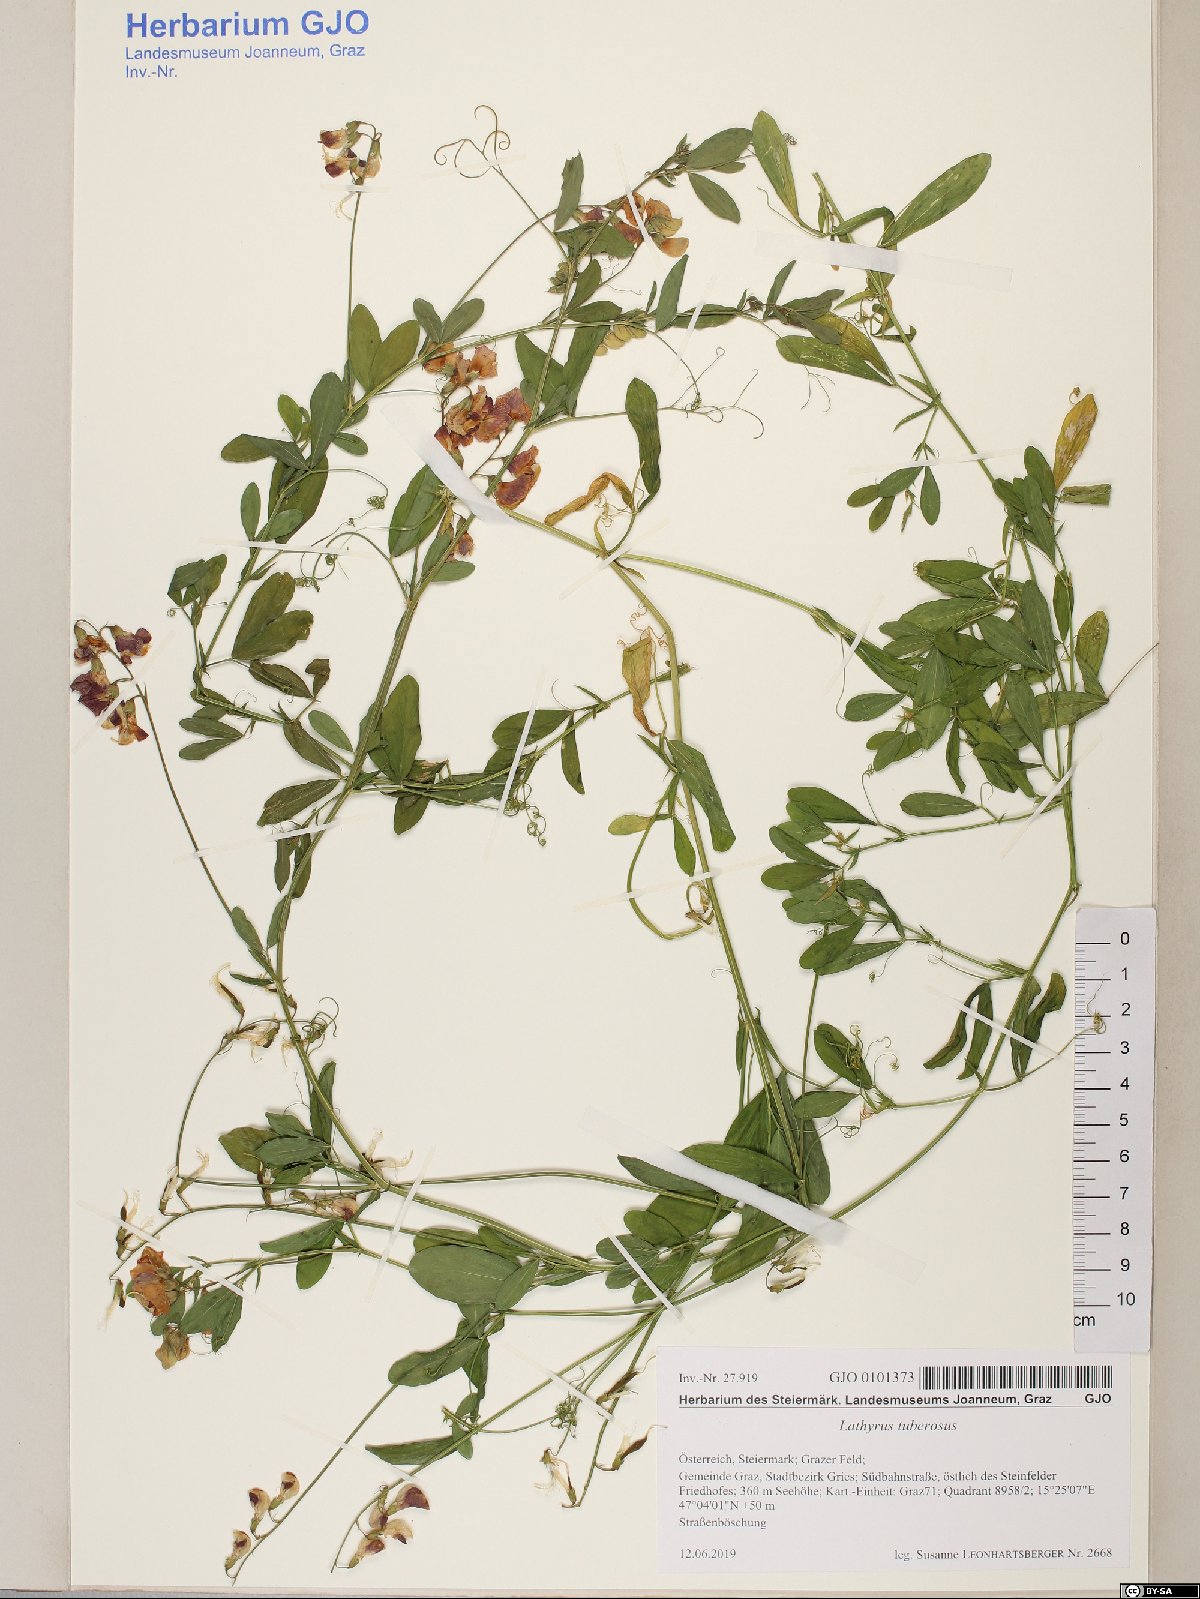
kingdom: Plantae
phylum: Tracheophyta
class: Magnoliopsida
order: Fabales
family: Fabaceae
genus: Lathyrus
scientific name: Lathyrus tuberosus
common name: Tuberous pea
